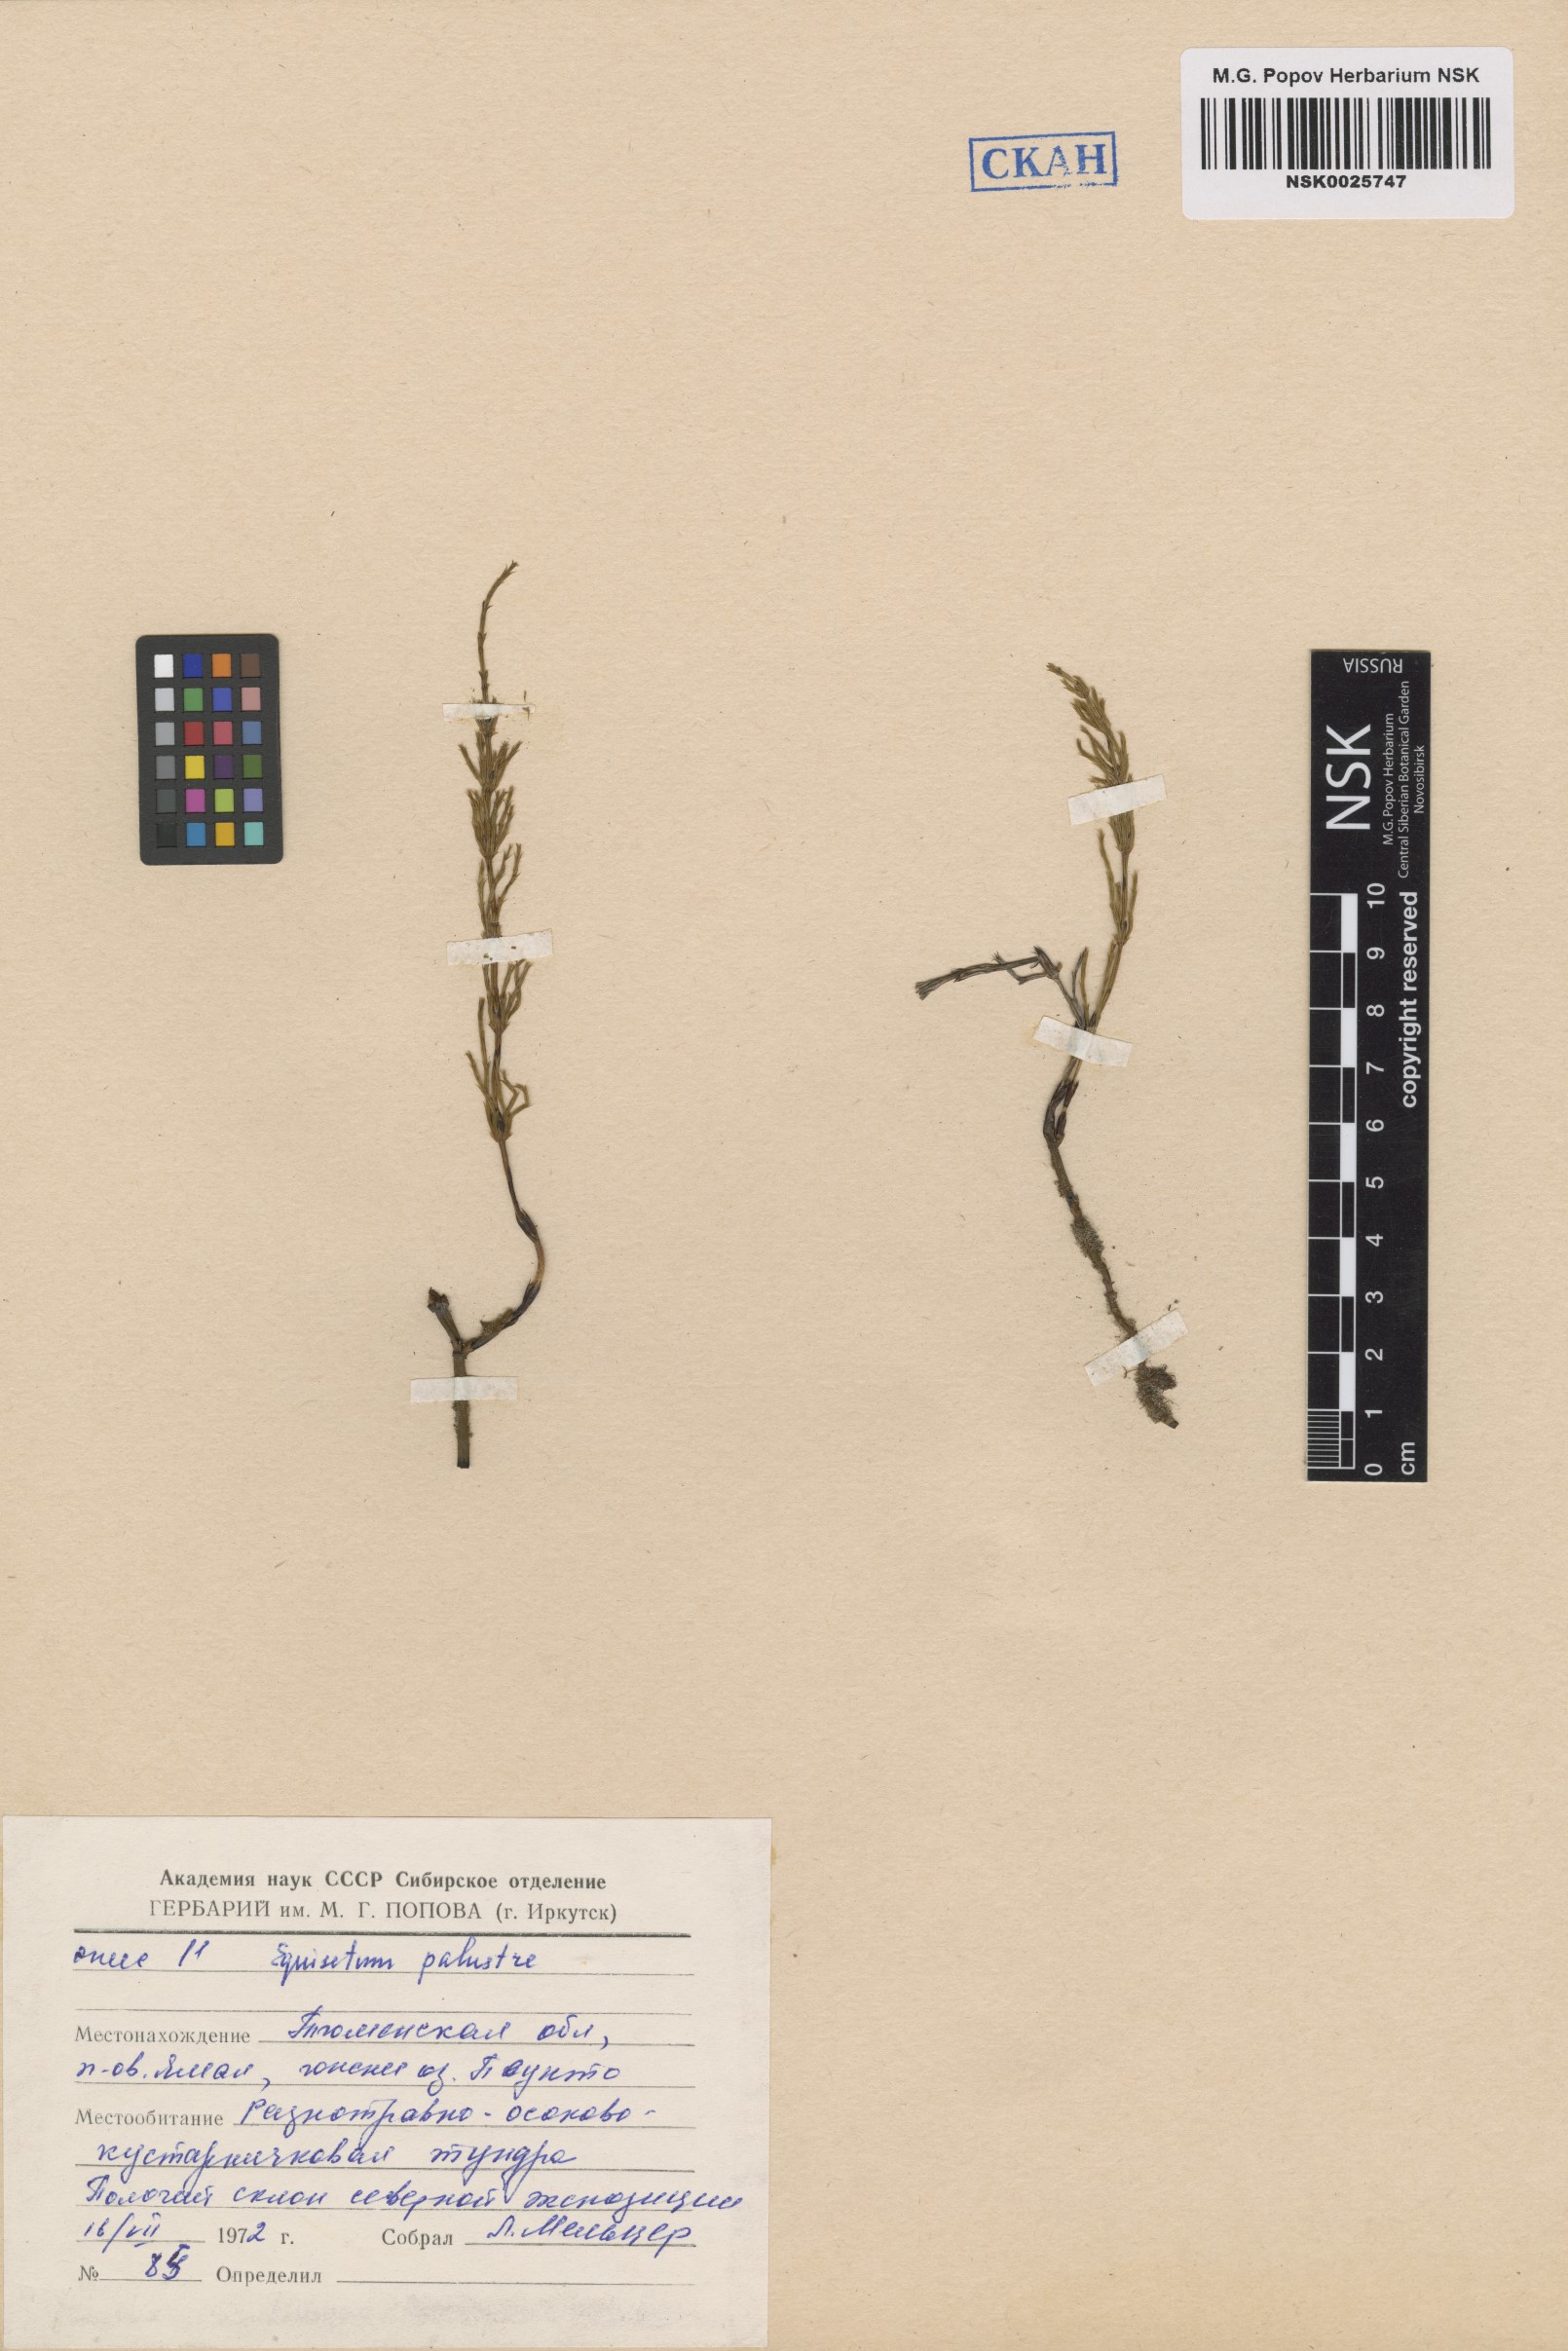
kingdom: Plantae
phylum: Tracheophyta
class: Polypodiopsida
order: Equisetales
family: Equisetaceae
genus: Equisetum
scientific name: Equisetum palustre
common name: Marsh horsetail
